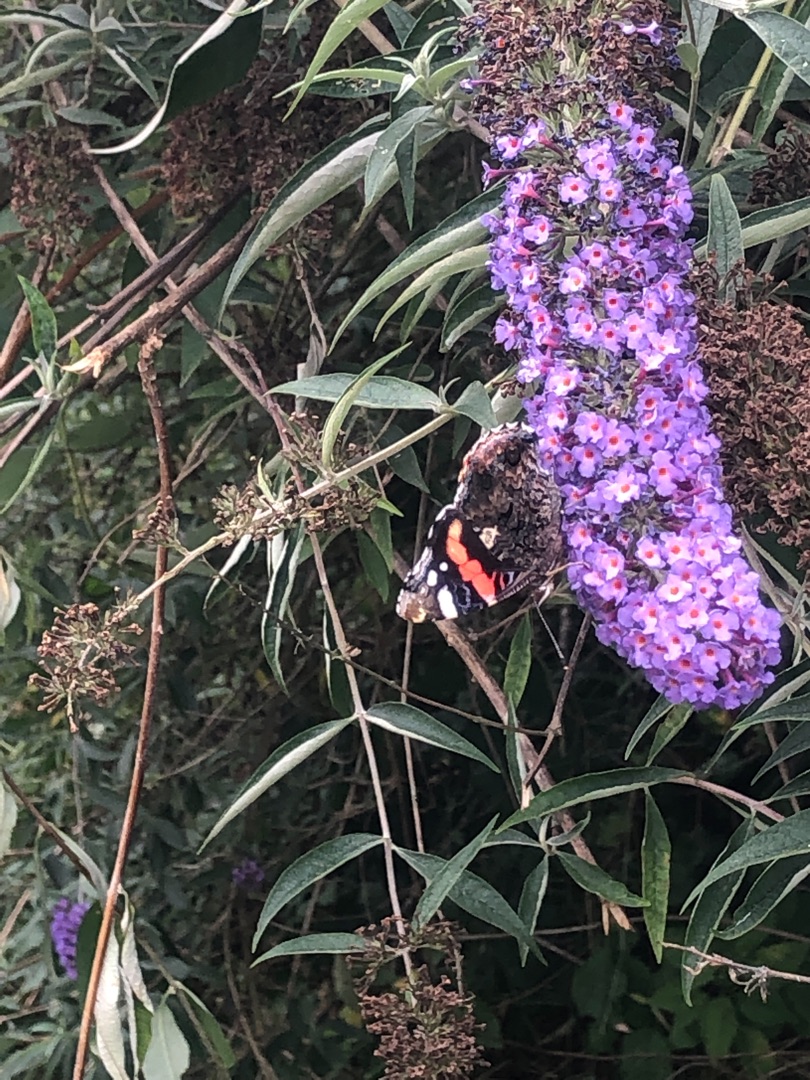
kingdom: Animalia
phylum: Arthropoda
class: Insecta
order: Lepidoptera
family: Nymphalidae
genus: Vanessa
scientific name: Vanessa atalanta
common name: Admiral
